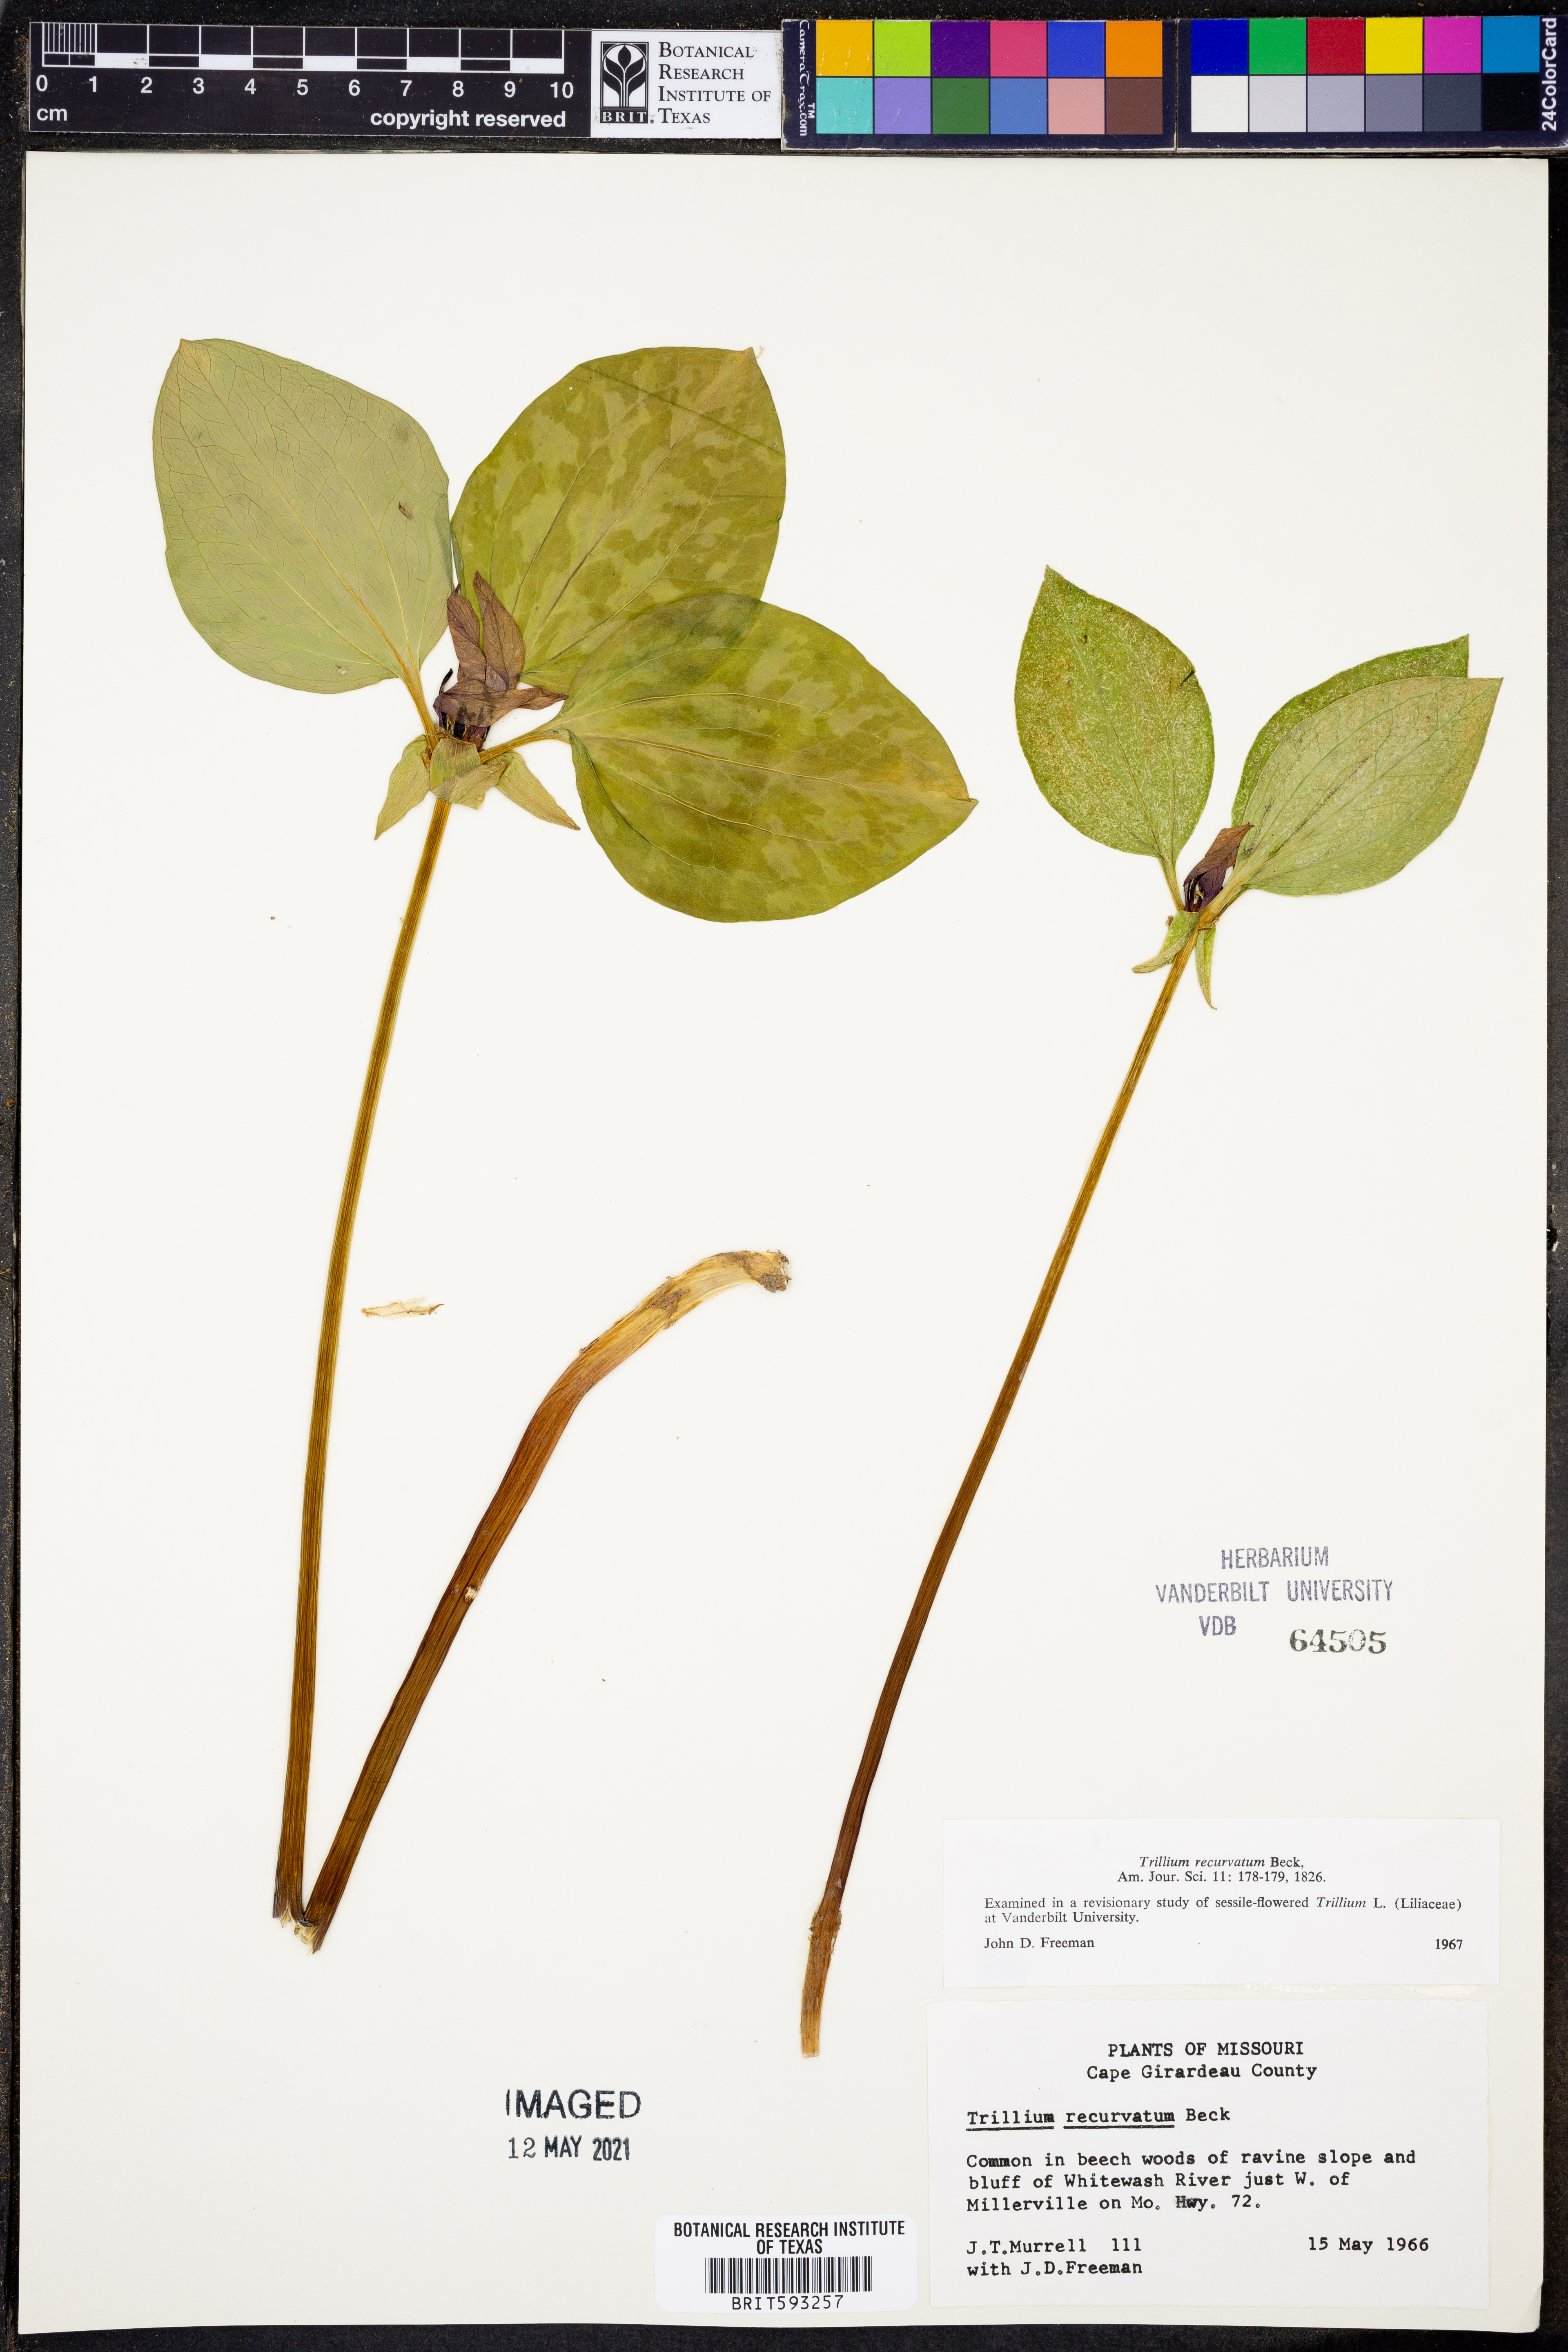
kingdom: Plantae
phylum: Tracheophyta
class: Liliopsida
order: Liliales
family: Melanthiaceae
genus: Trillium
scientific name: Trillium recurvatum
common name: Bloody butcher
